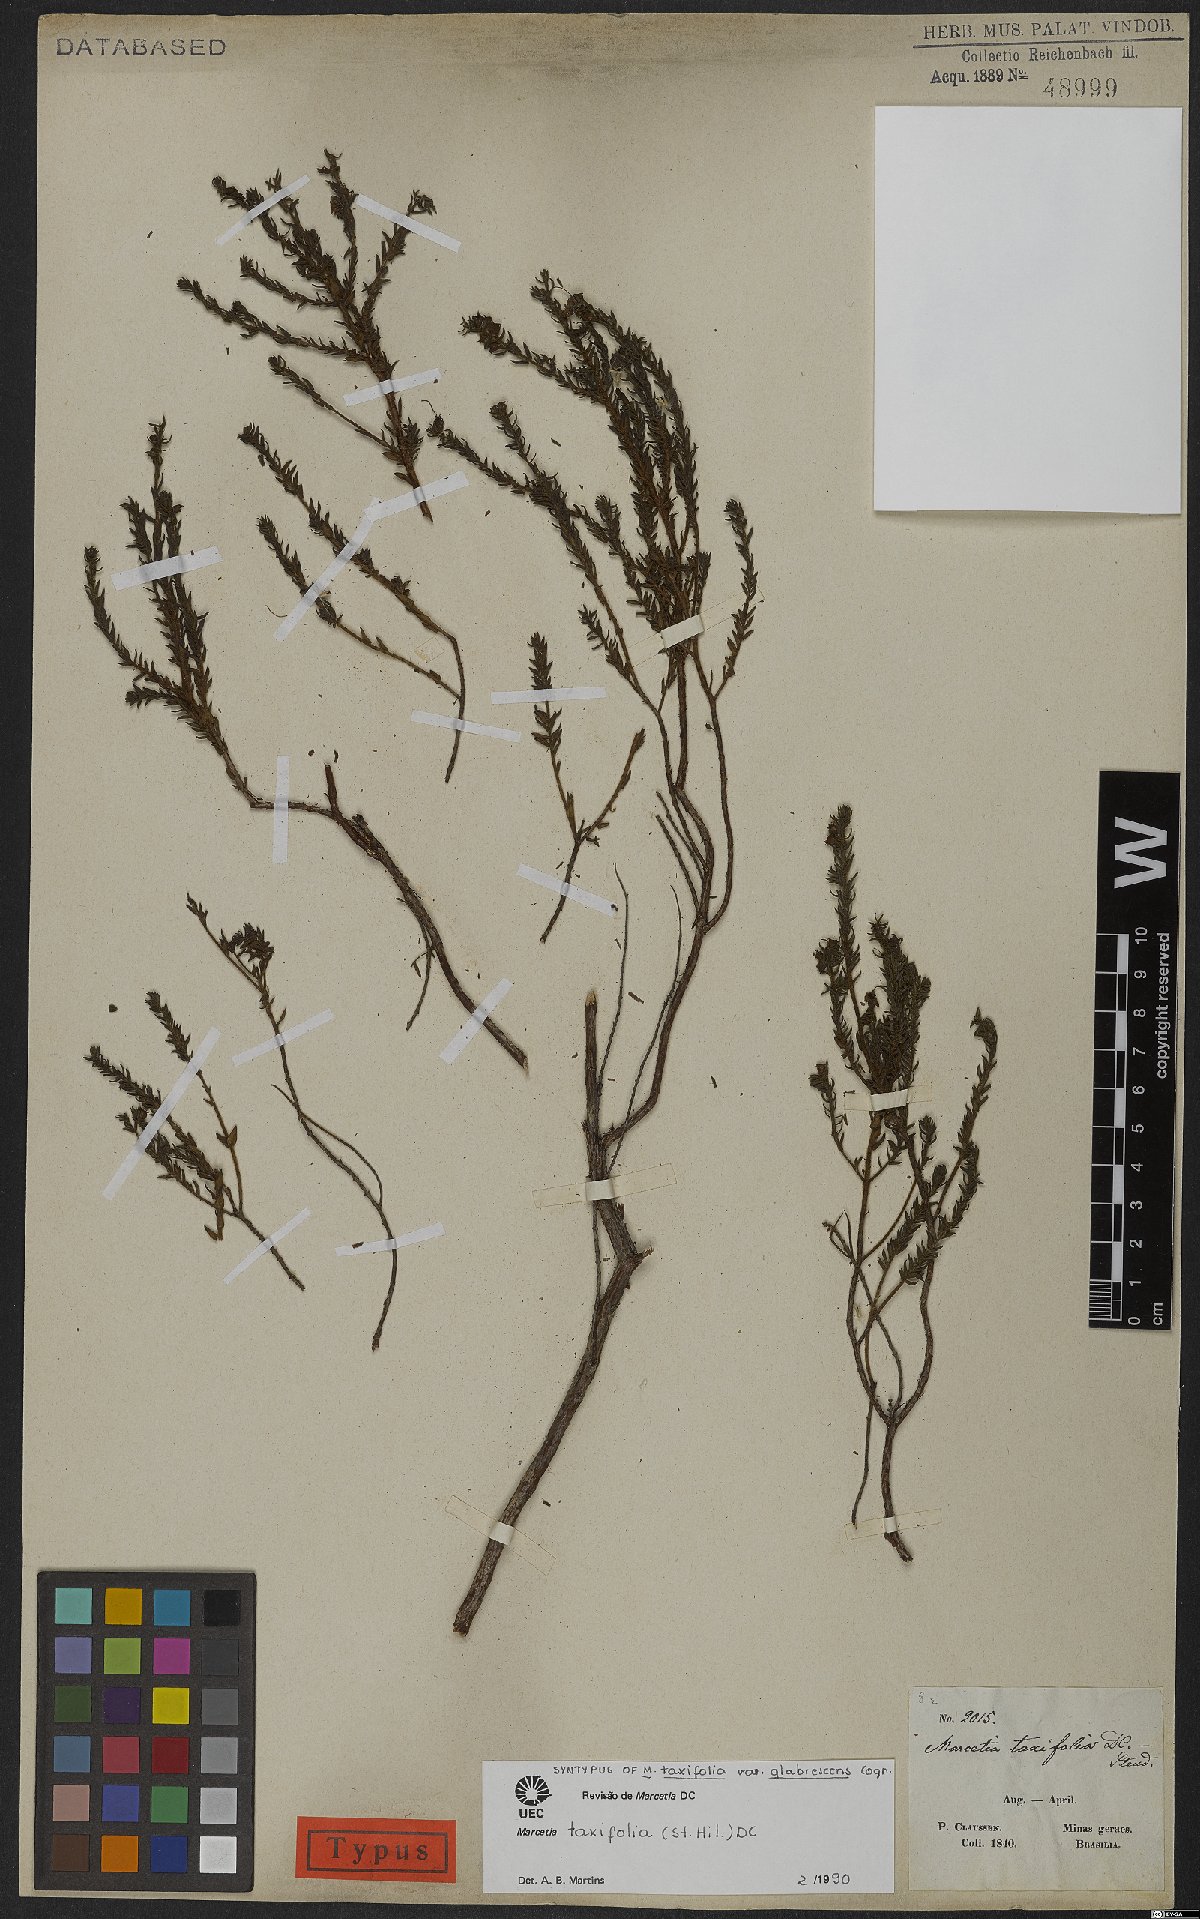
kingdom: Plantae
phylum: Tracheophyta
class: Magnoliopsida
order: Myrtales
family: Melastomataceae
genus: Marcetia
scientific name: Marcetia taxifolia
